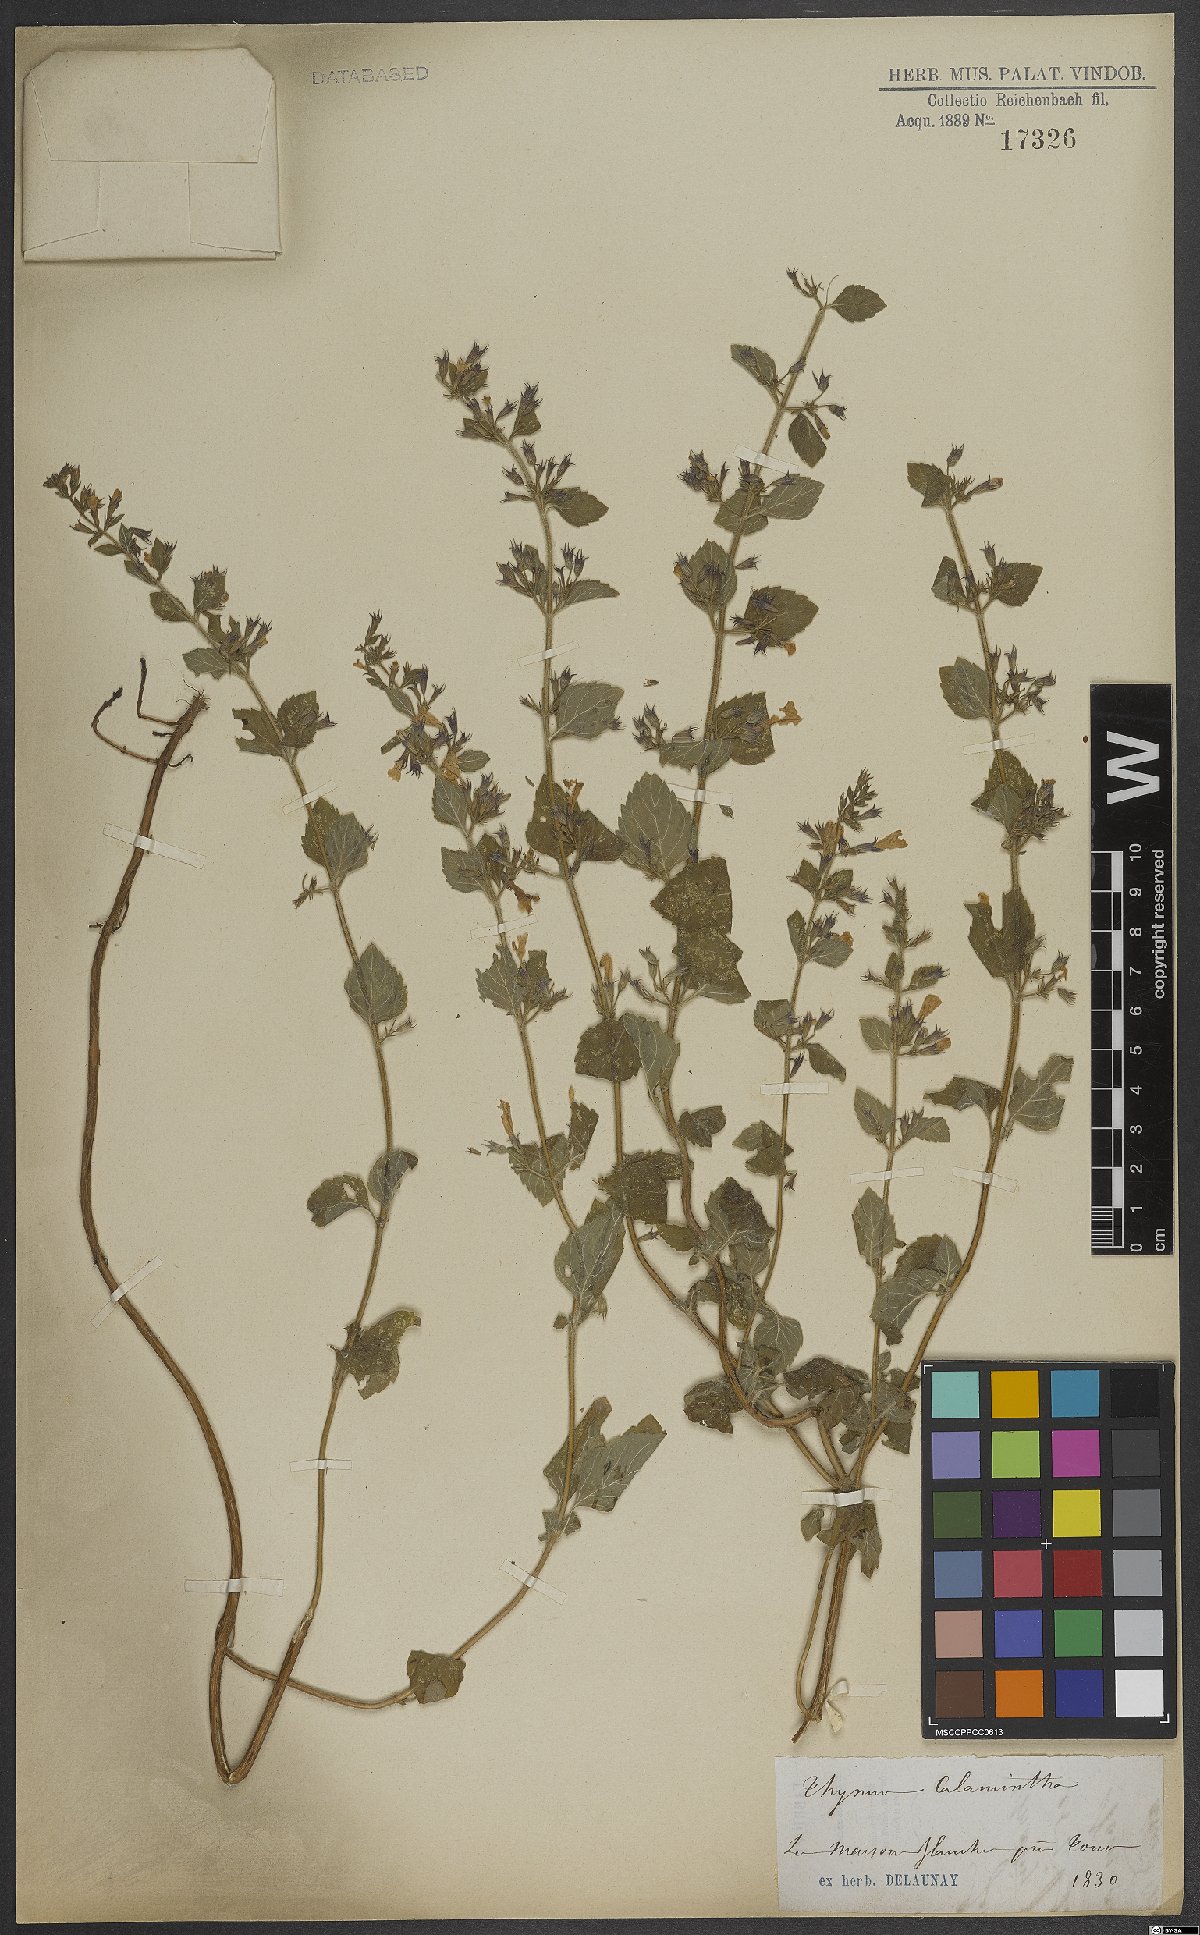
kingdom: Plantae
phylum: Tracheophyta
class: Magnoliopsida
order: Lamiales
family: Lamiaceae
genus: Thymus
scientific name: Thymus
